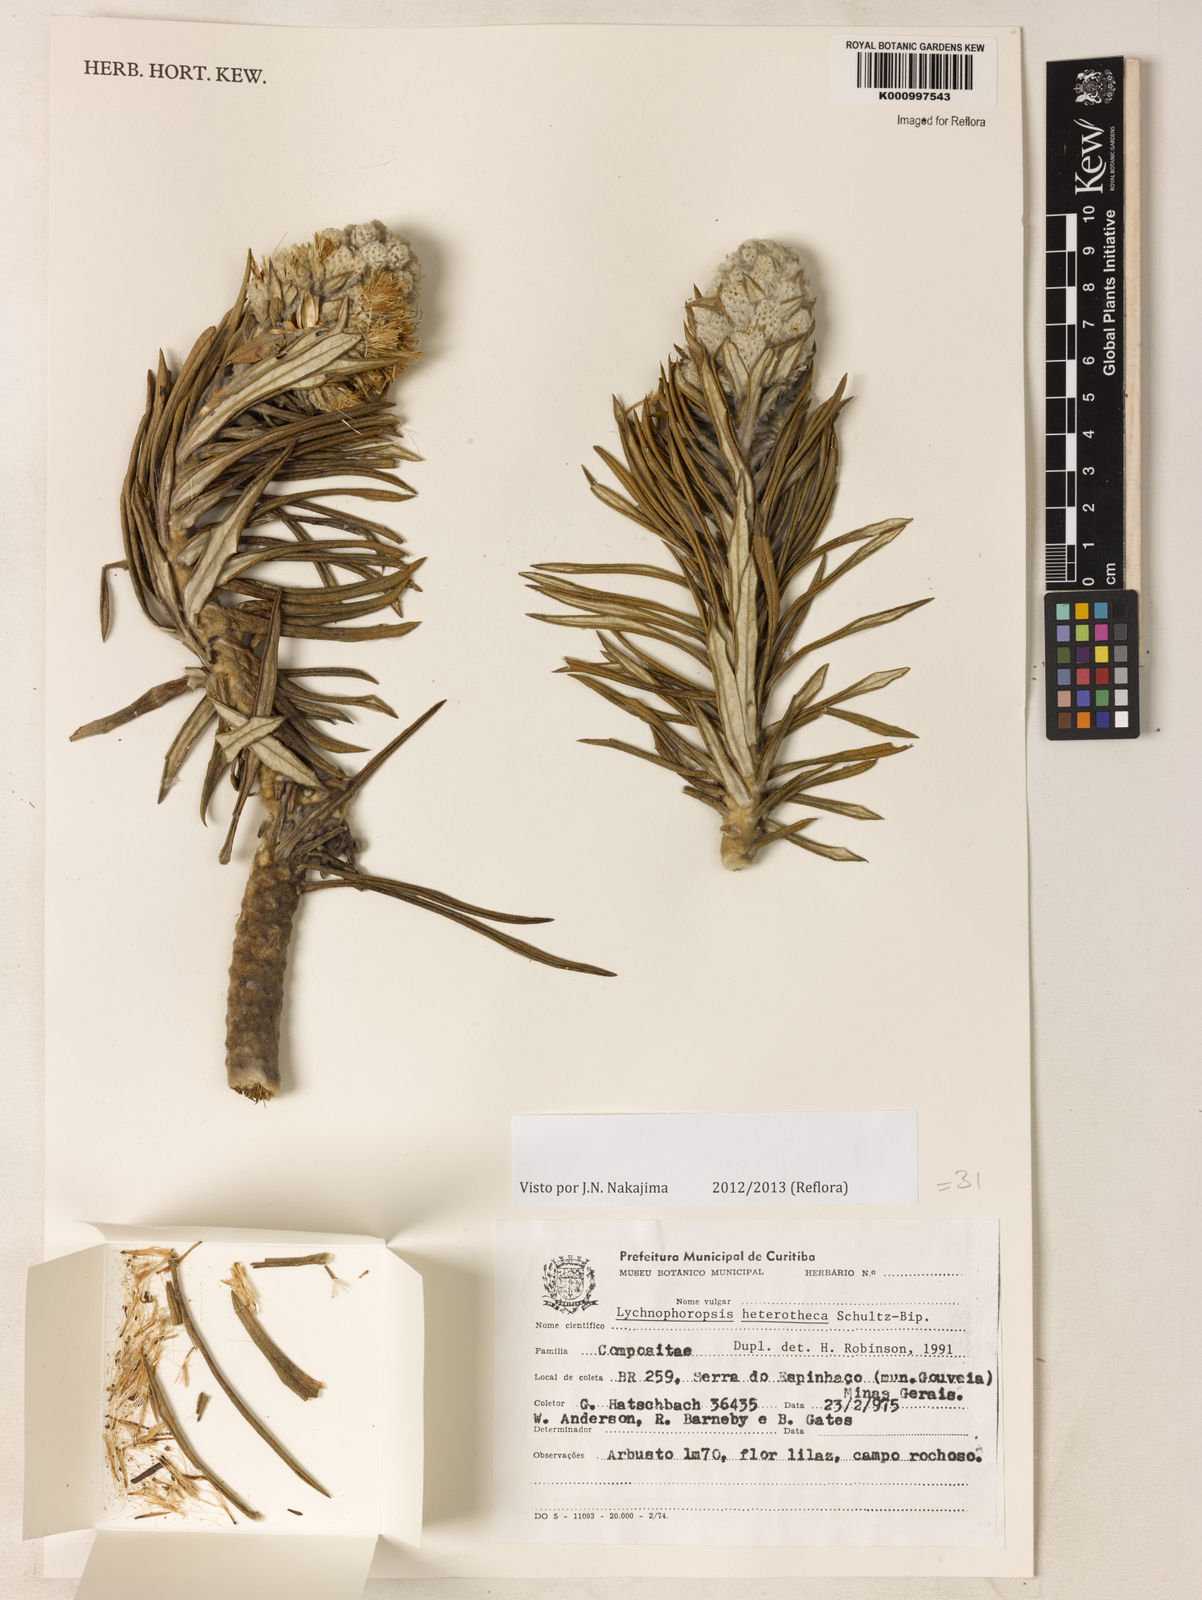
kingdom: Plantae
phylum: Tracheophyta
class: Magnoliopsida
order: Asterales
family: Asteraceae
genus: Lychnophora
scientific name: Lychnophora candelabrum
